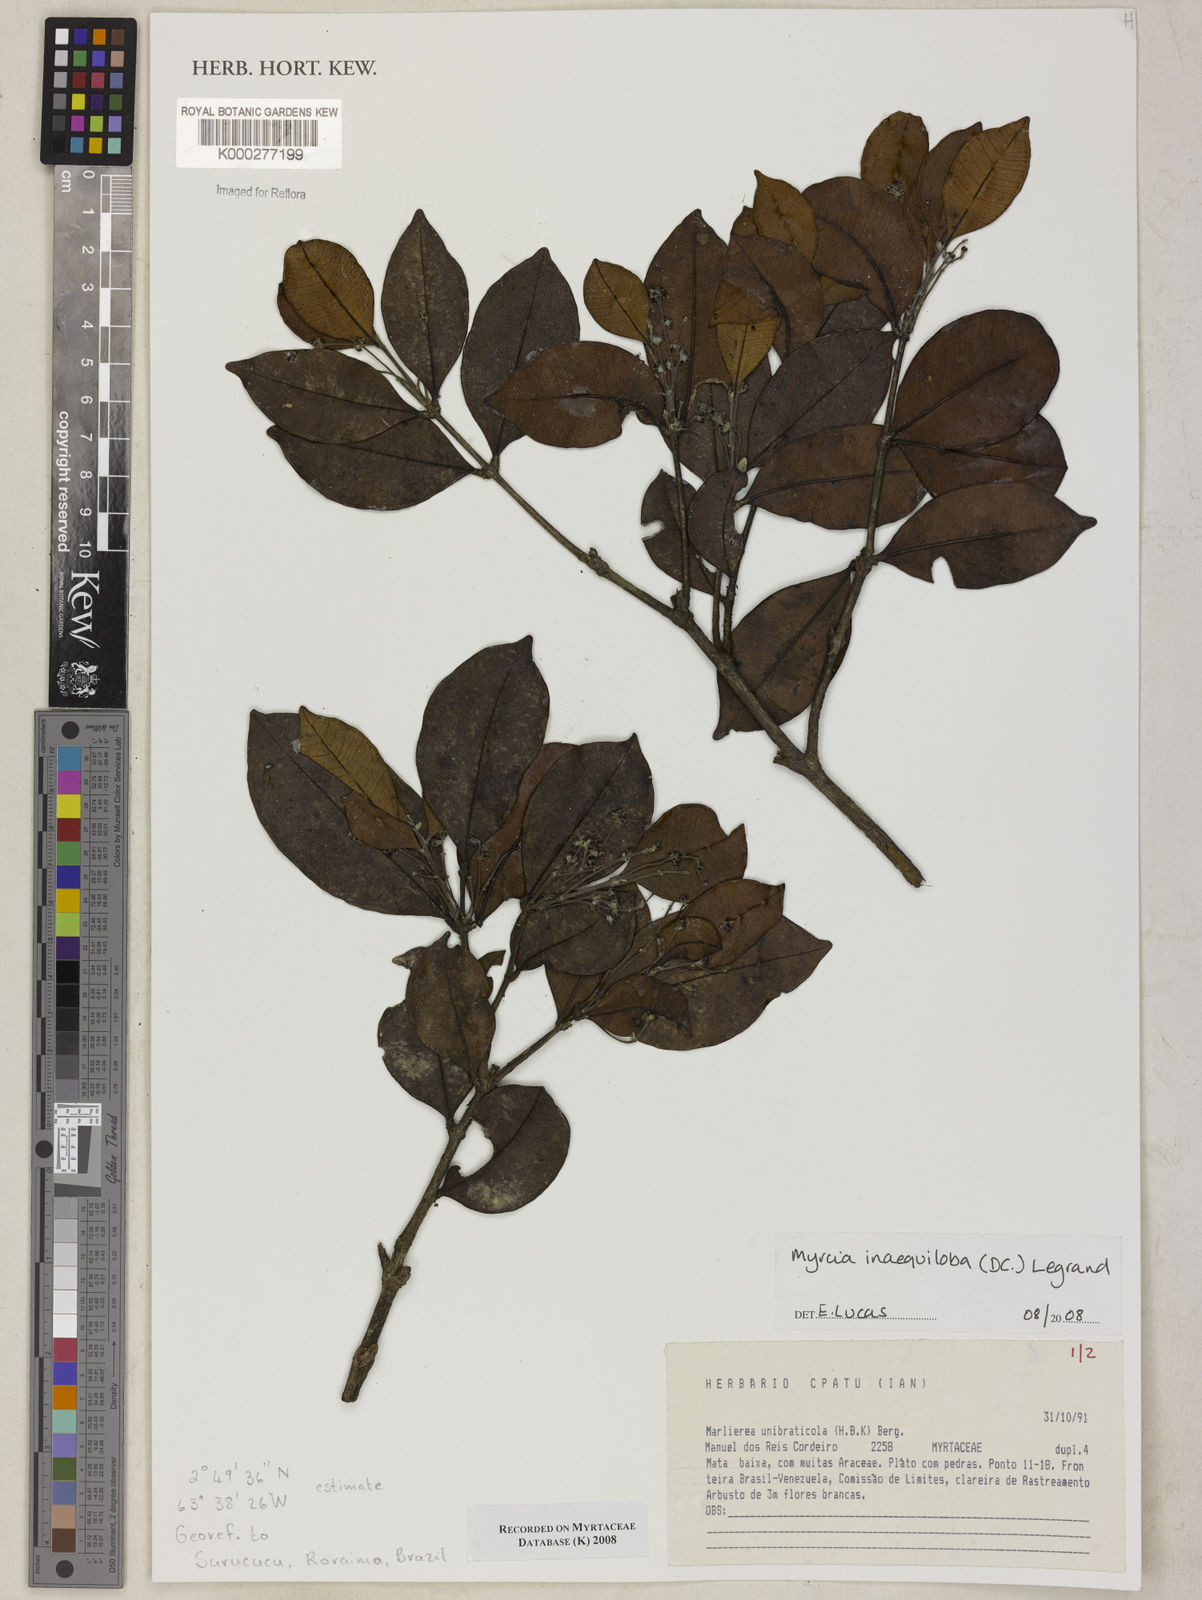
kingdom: Plantae
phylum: Tracheophyta
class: Magnoliopsida
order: Myrtales
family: Myrtaceae
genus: Myrcia
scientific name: Myrcia inaequiloba
